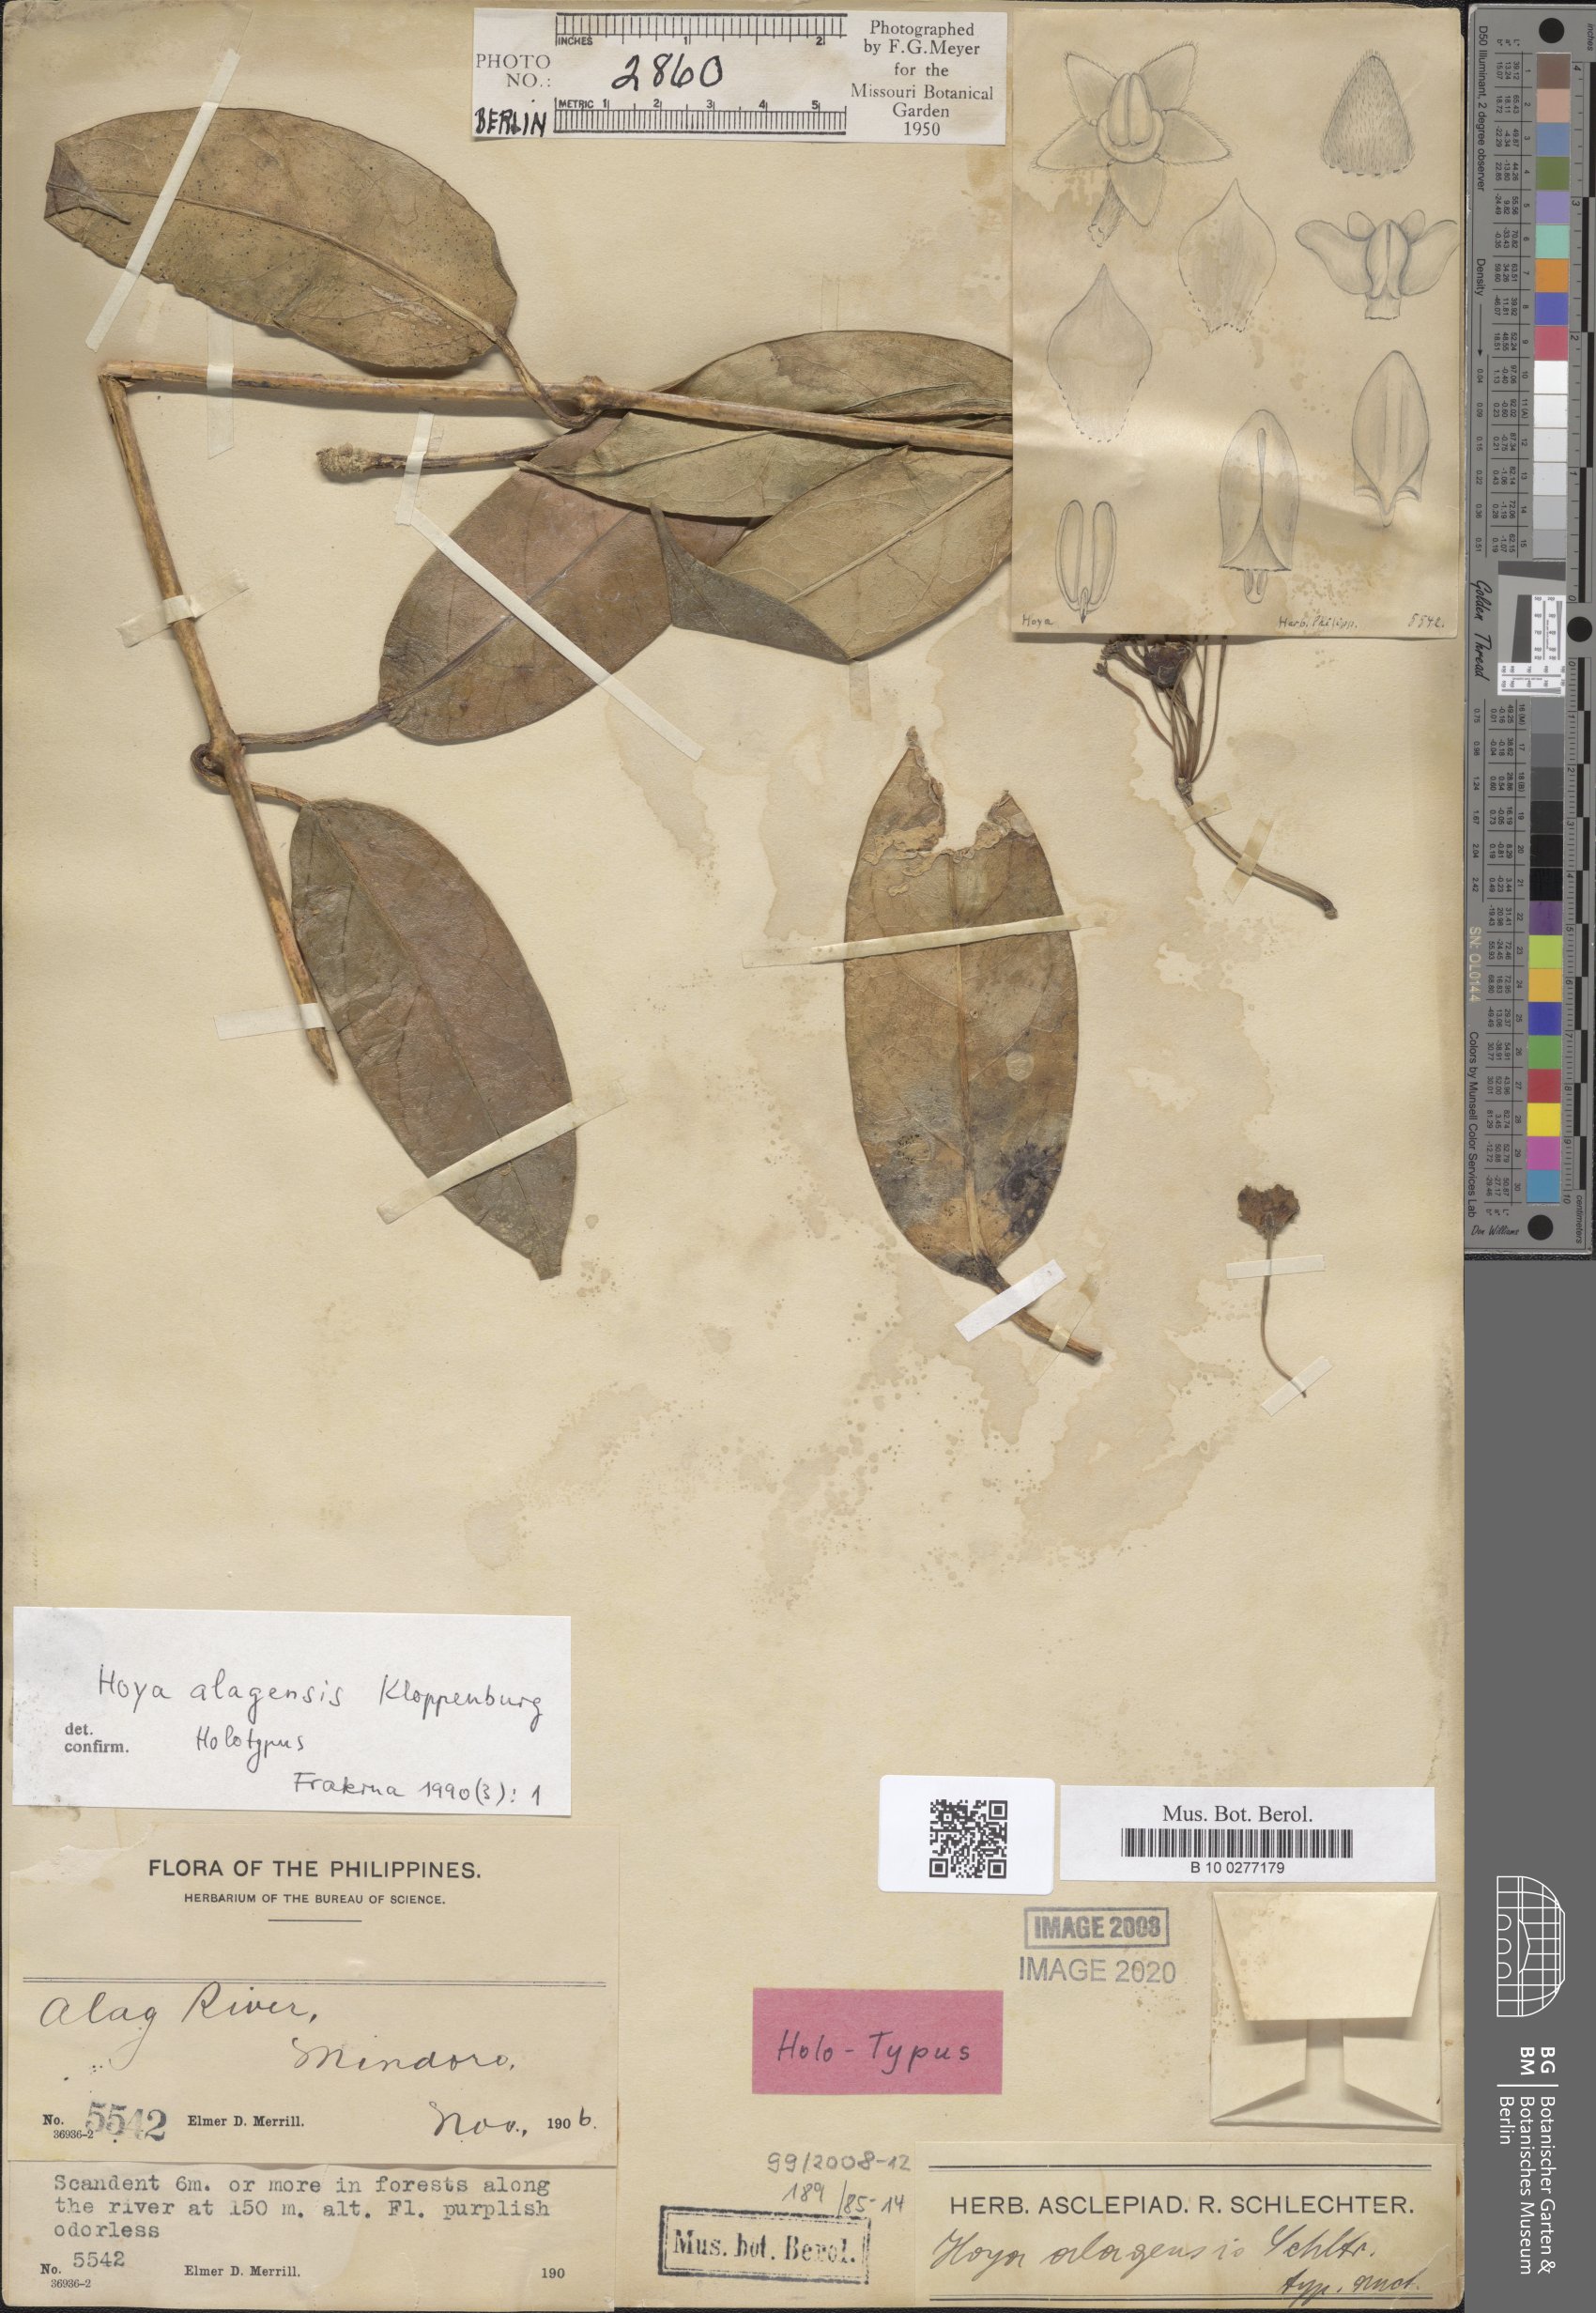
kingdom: Plantae
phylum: Tracheophyta
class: Magnoliopsida
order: Gentianales
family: Apocynaceae
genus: Hoya
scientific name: Hoya alagensis
